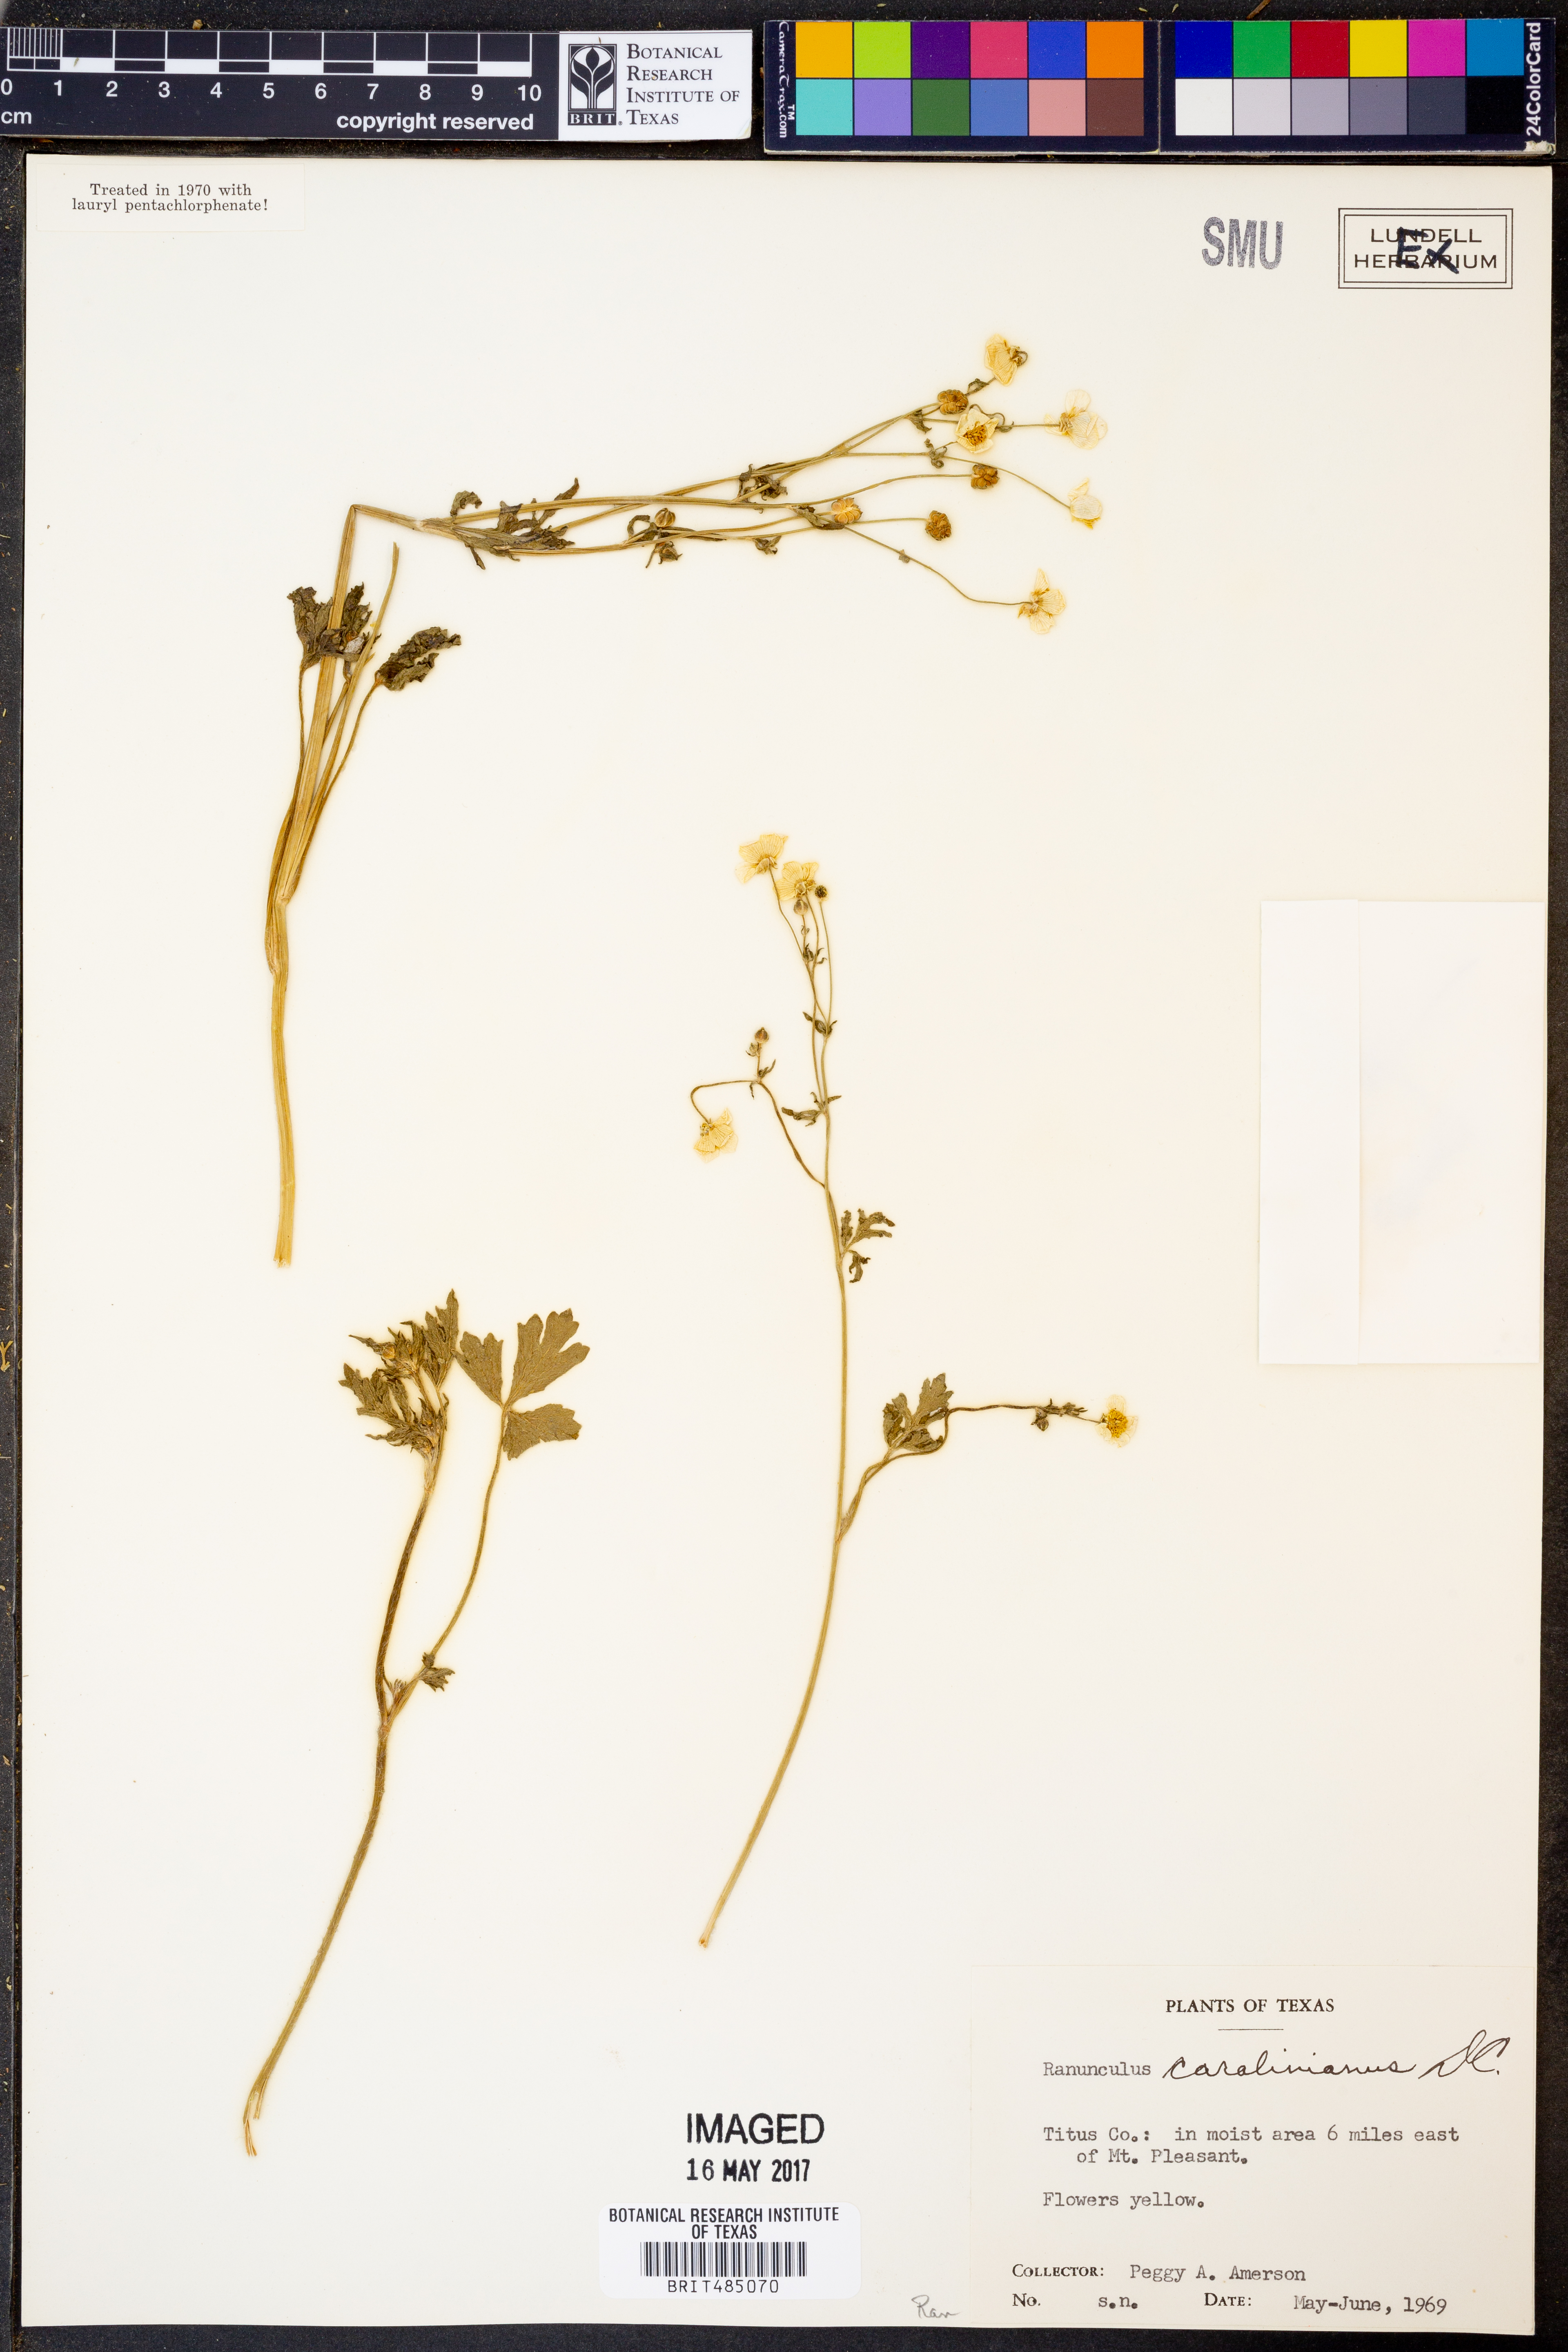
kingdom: Plantae
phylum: Tracheophyta
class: Magnoliopsida
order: Ranunculales
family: Ranunculaceae
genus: Ranunculus
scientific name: Ranunculus hispidus
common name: Bristly buttercup
